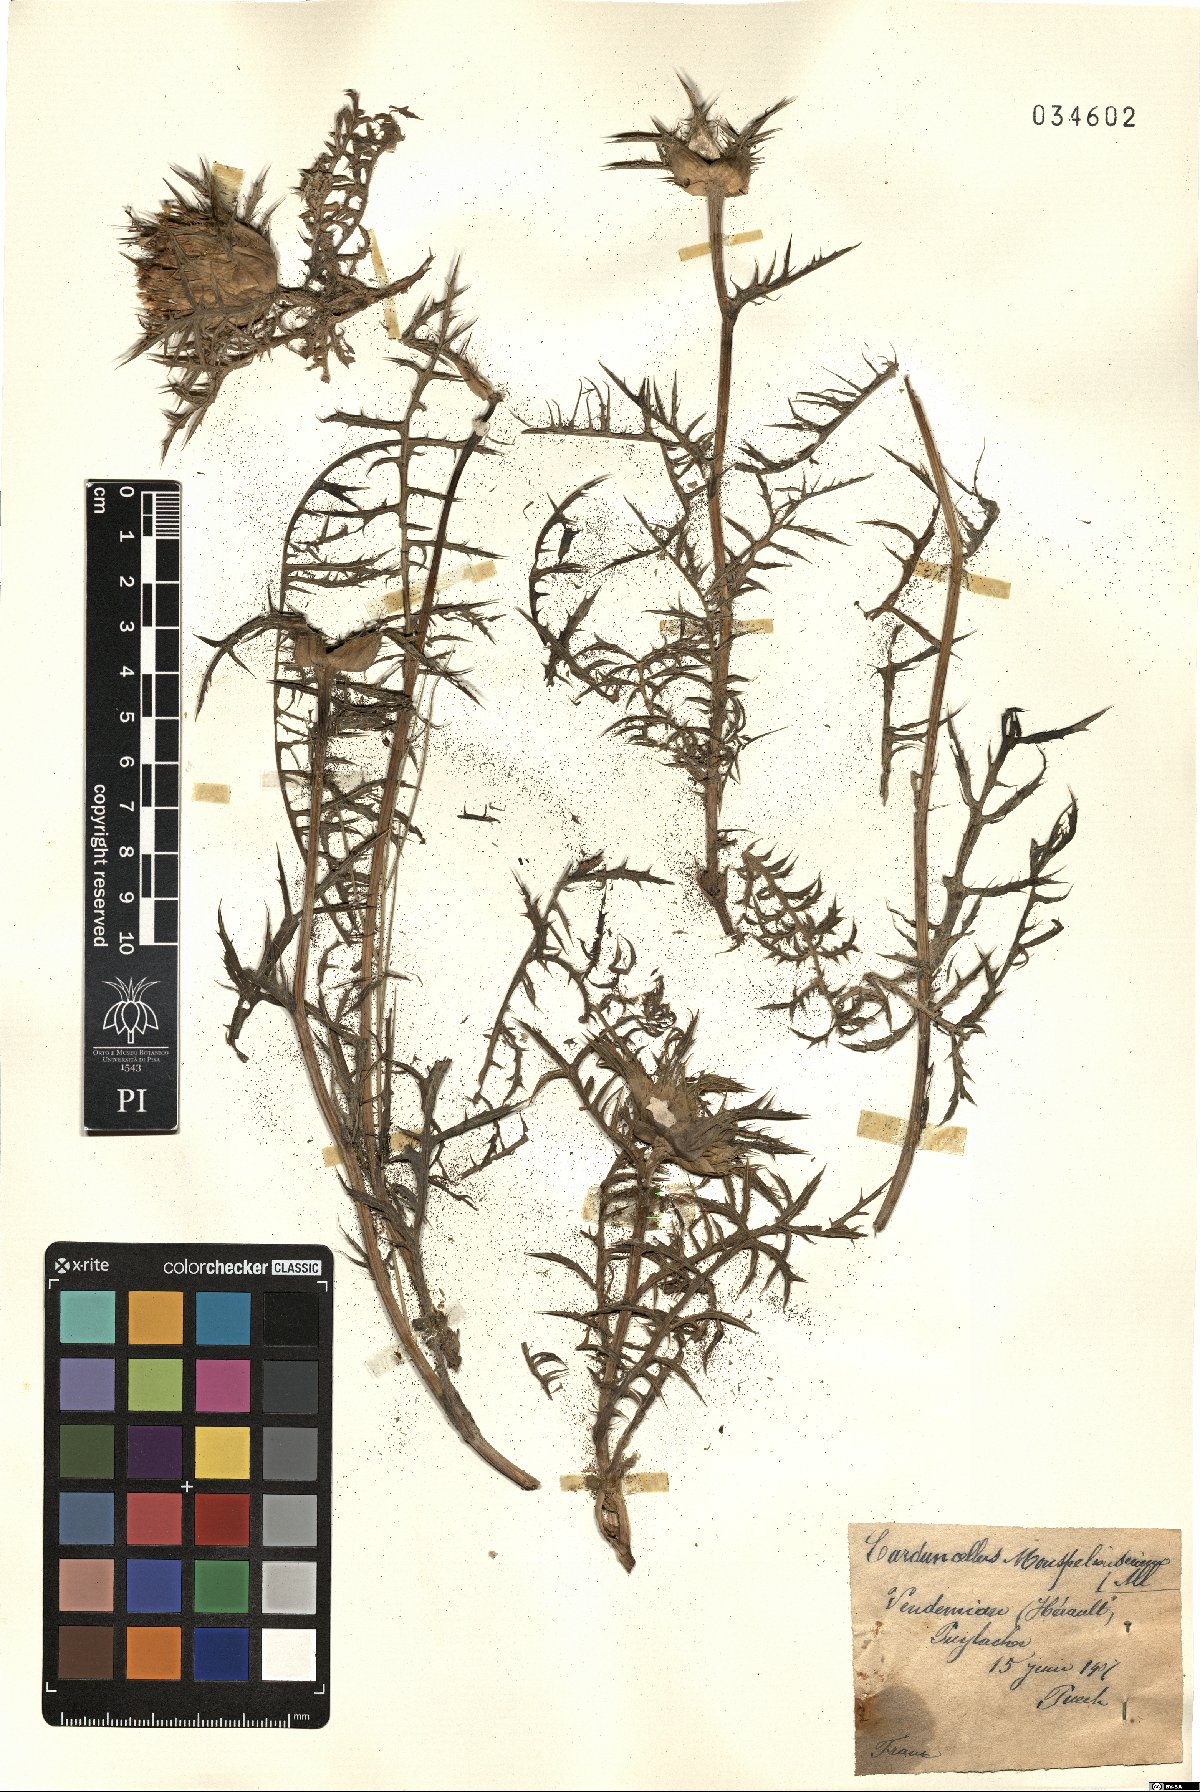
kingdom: Plantae
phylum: Tracheophyta
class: Magnoliopsida
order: Asterales
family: Asteraceae
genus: Carduncellus
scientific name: Carduncellus monspelliensium
